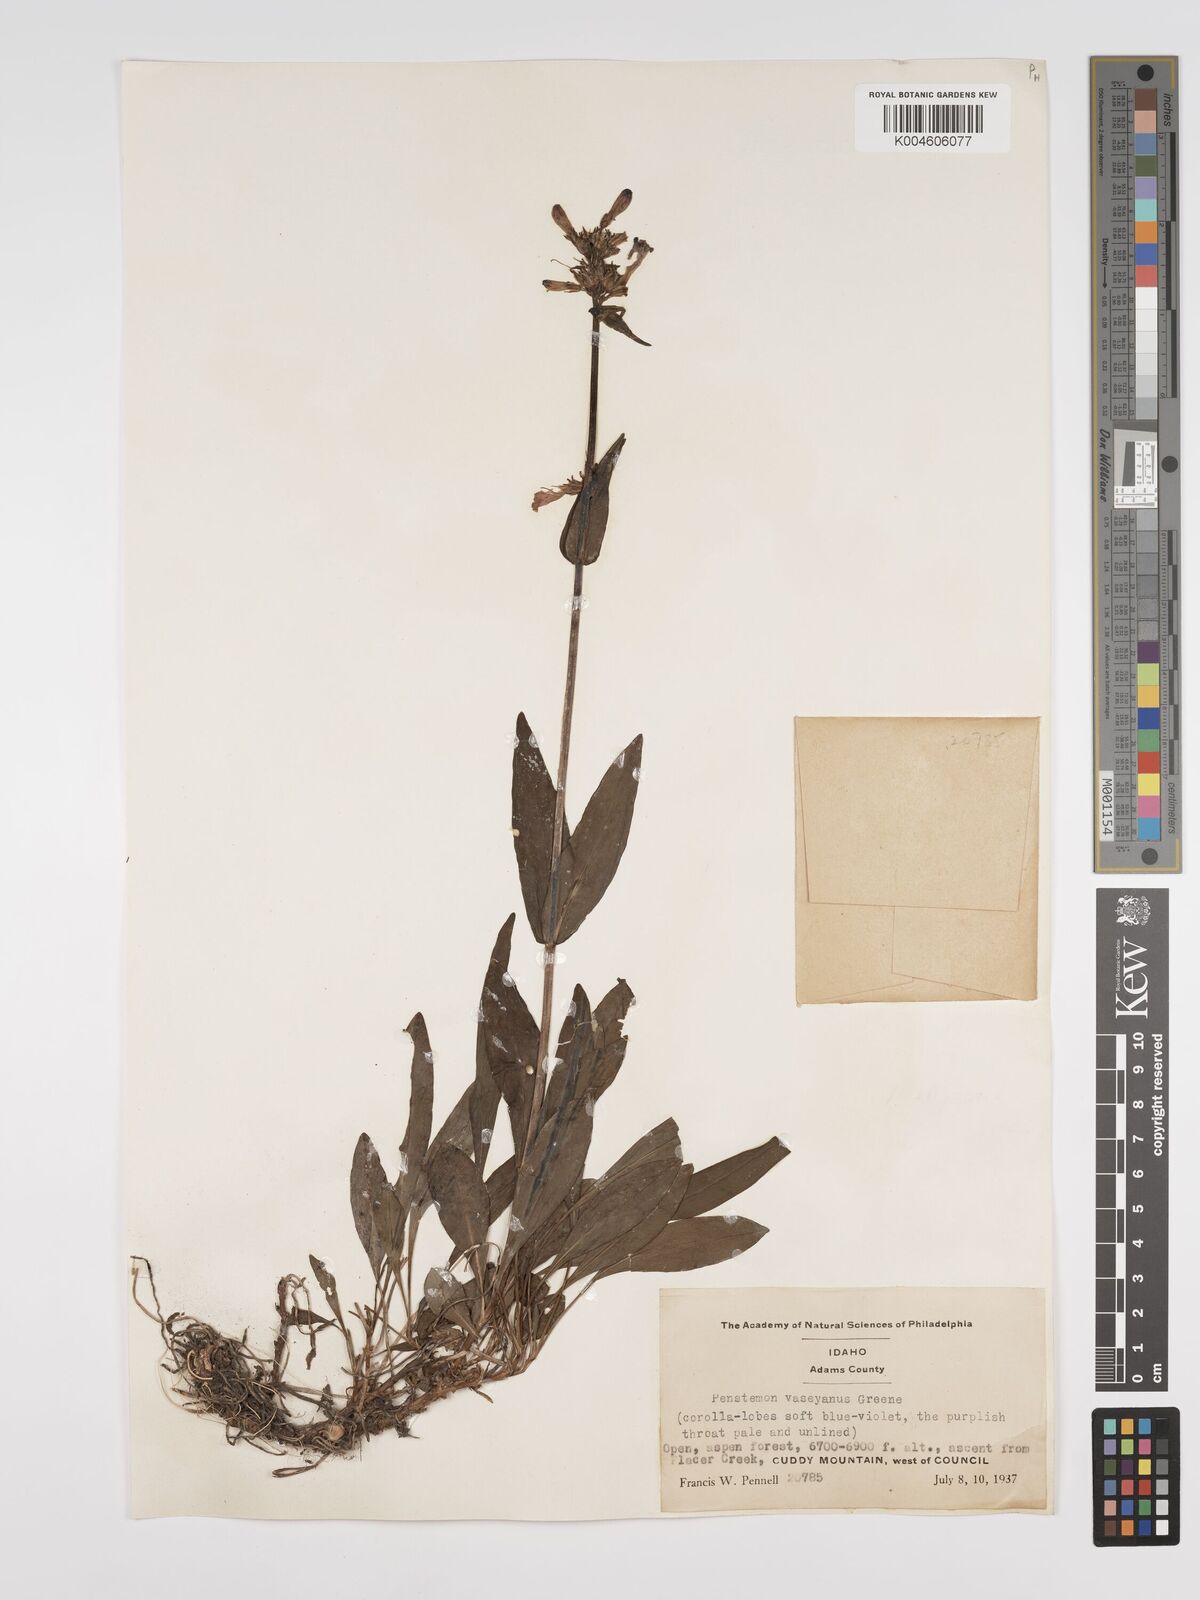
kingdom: Plantae
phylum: Tracheophyta
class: Magnoliopsida
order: Lamiales
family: Plantaginaceae
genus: Penstemon
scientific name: Penstemon rydbergii
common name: Rydberg's beardtongue
